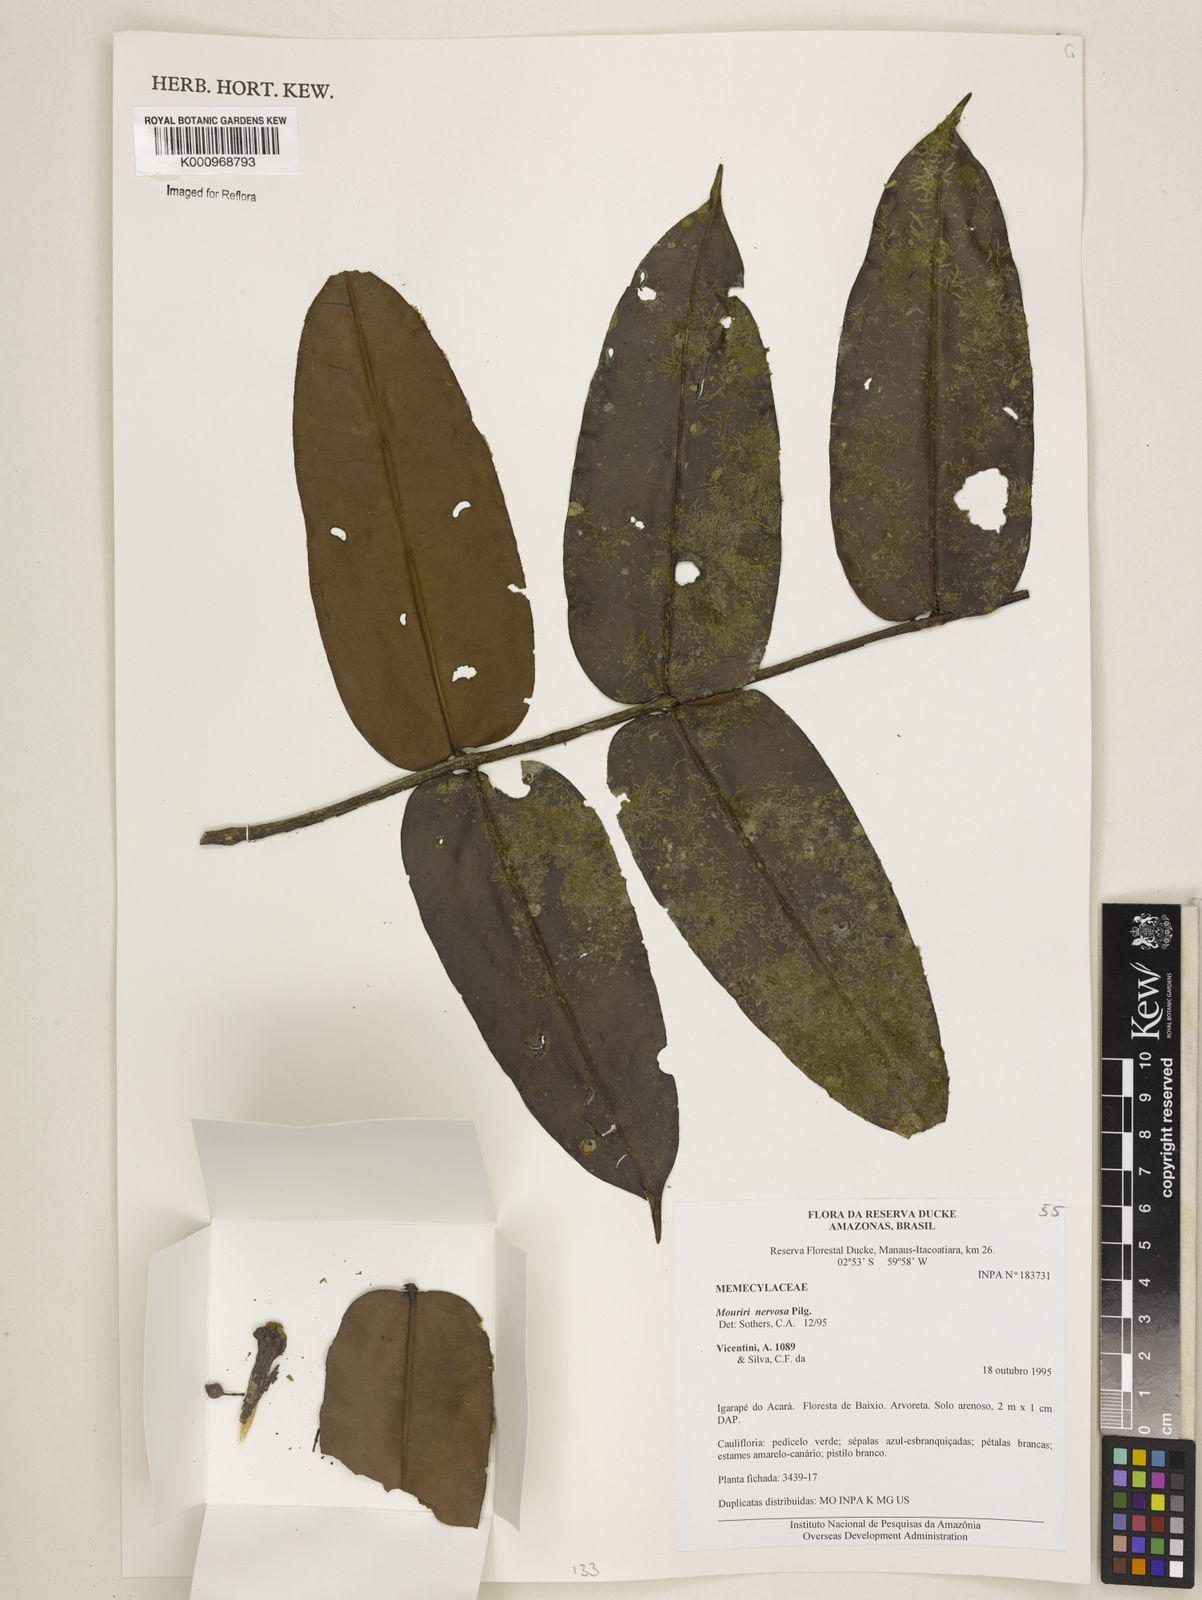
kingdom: Plantae
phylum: Tracheophyta
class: Magnoliopsida
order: Myrtales
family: Melastomataceae
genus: Mouriri
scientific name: Mouriri sideroxylon
